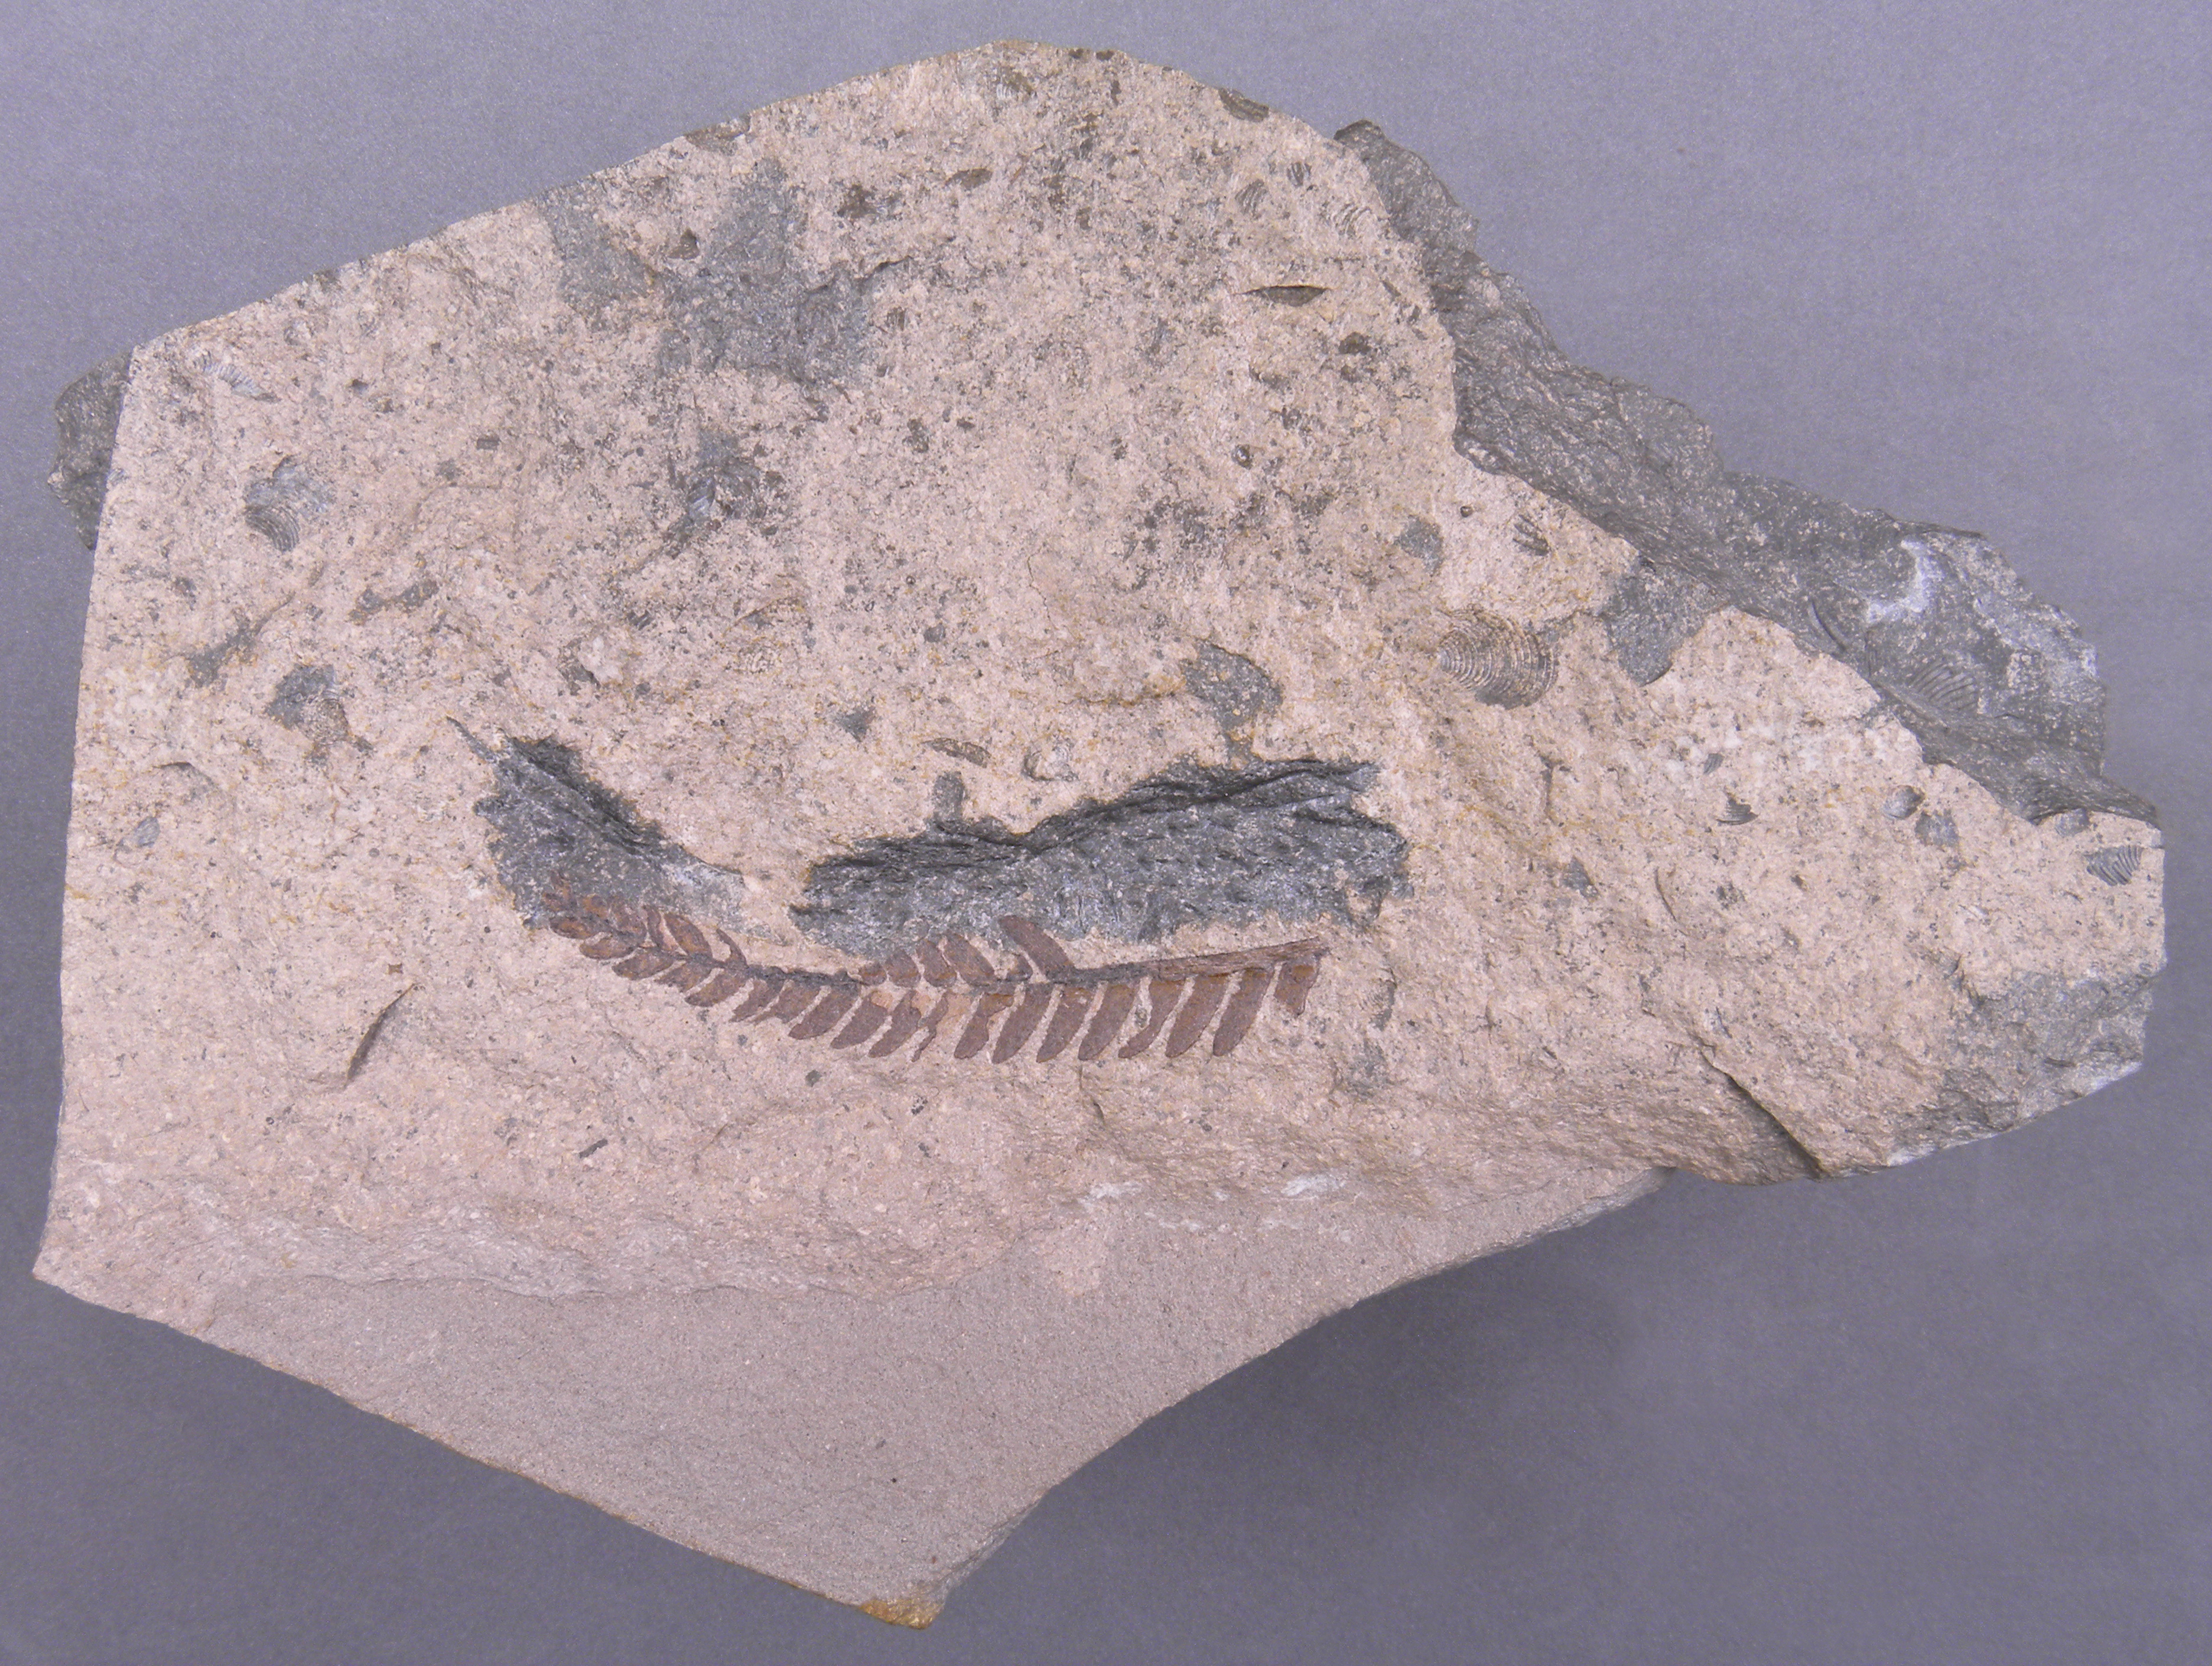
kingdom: Plantae
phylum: Tracheophyta
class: Cycadopsida
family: Williamsoniaceae
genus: Otozamites
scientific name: Otozamites
